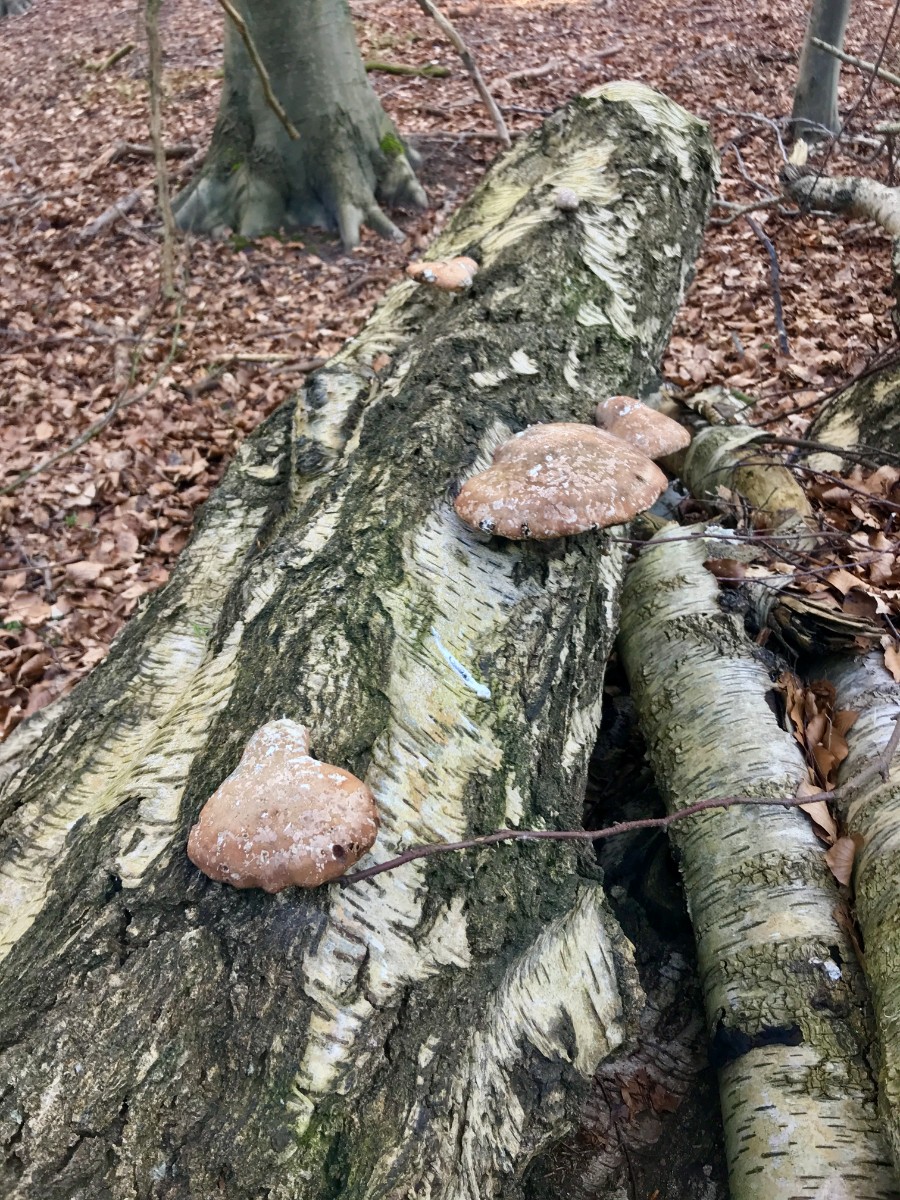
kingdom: Fungi
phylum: Basidiomycota
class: Agaricomycetes
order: Polyporales
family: Fomitopsidaceae
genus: Fomitopsis
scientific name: Fomitopsis betulina
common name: birkeporesvamp
